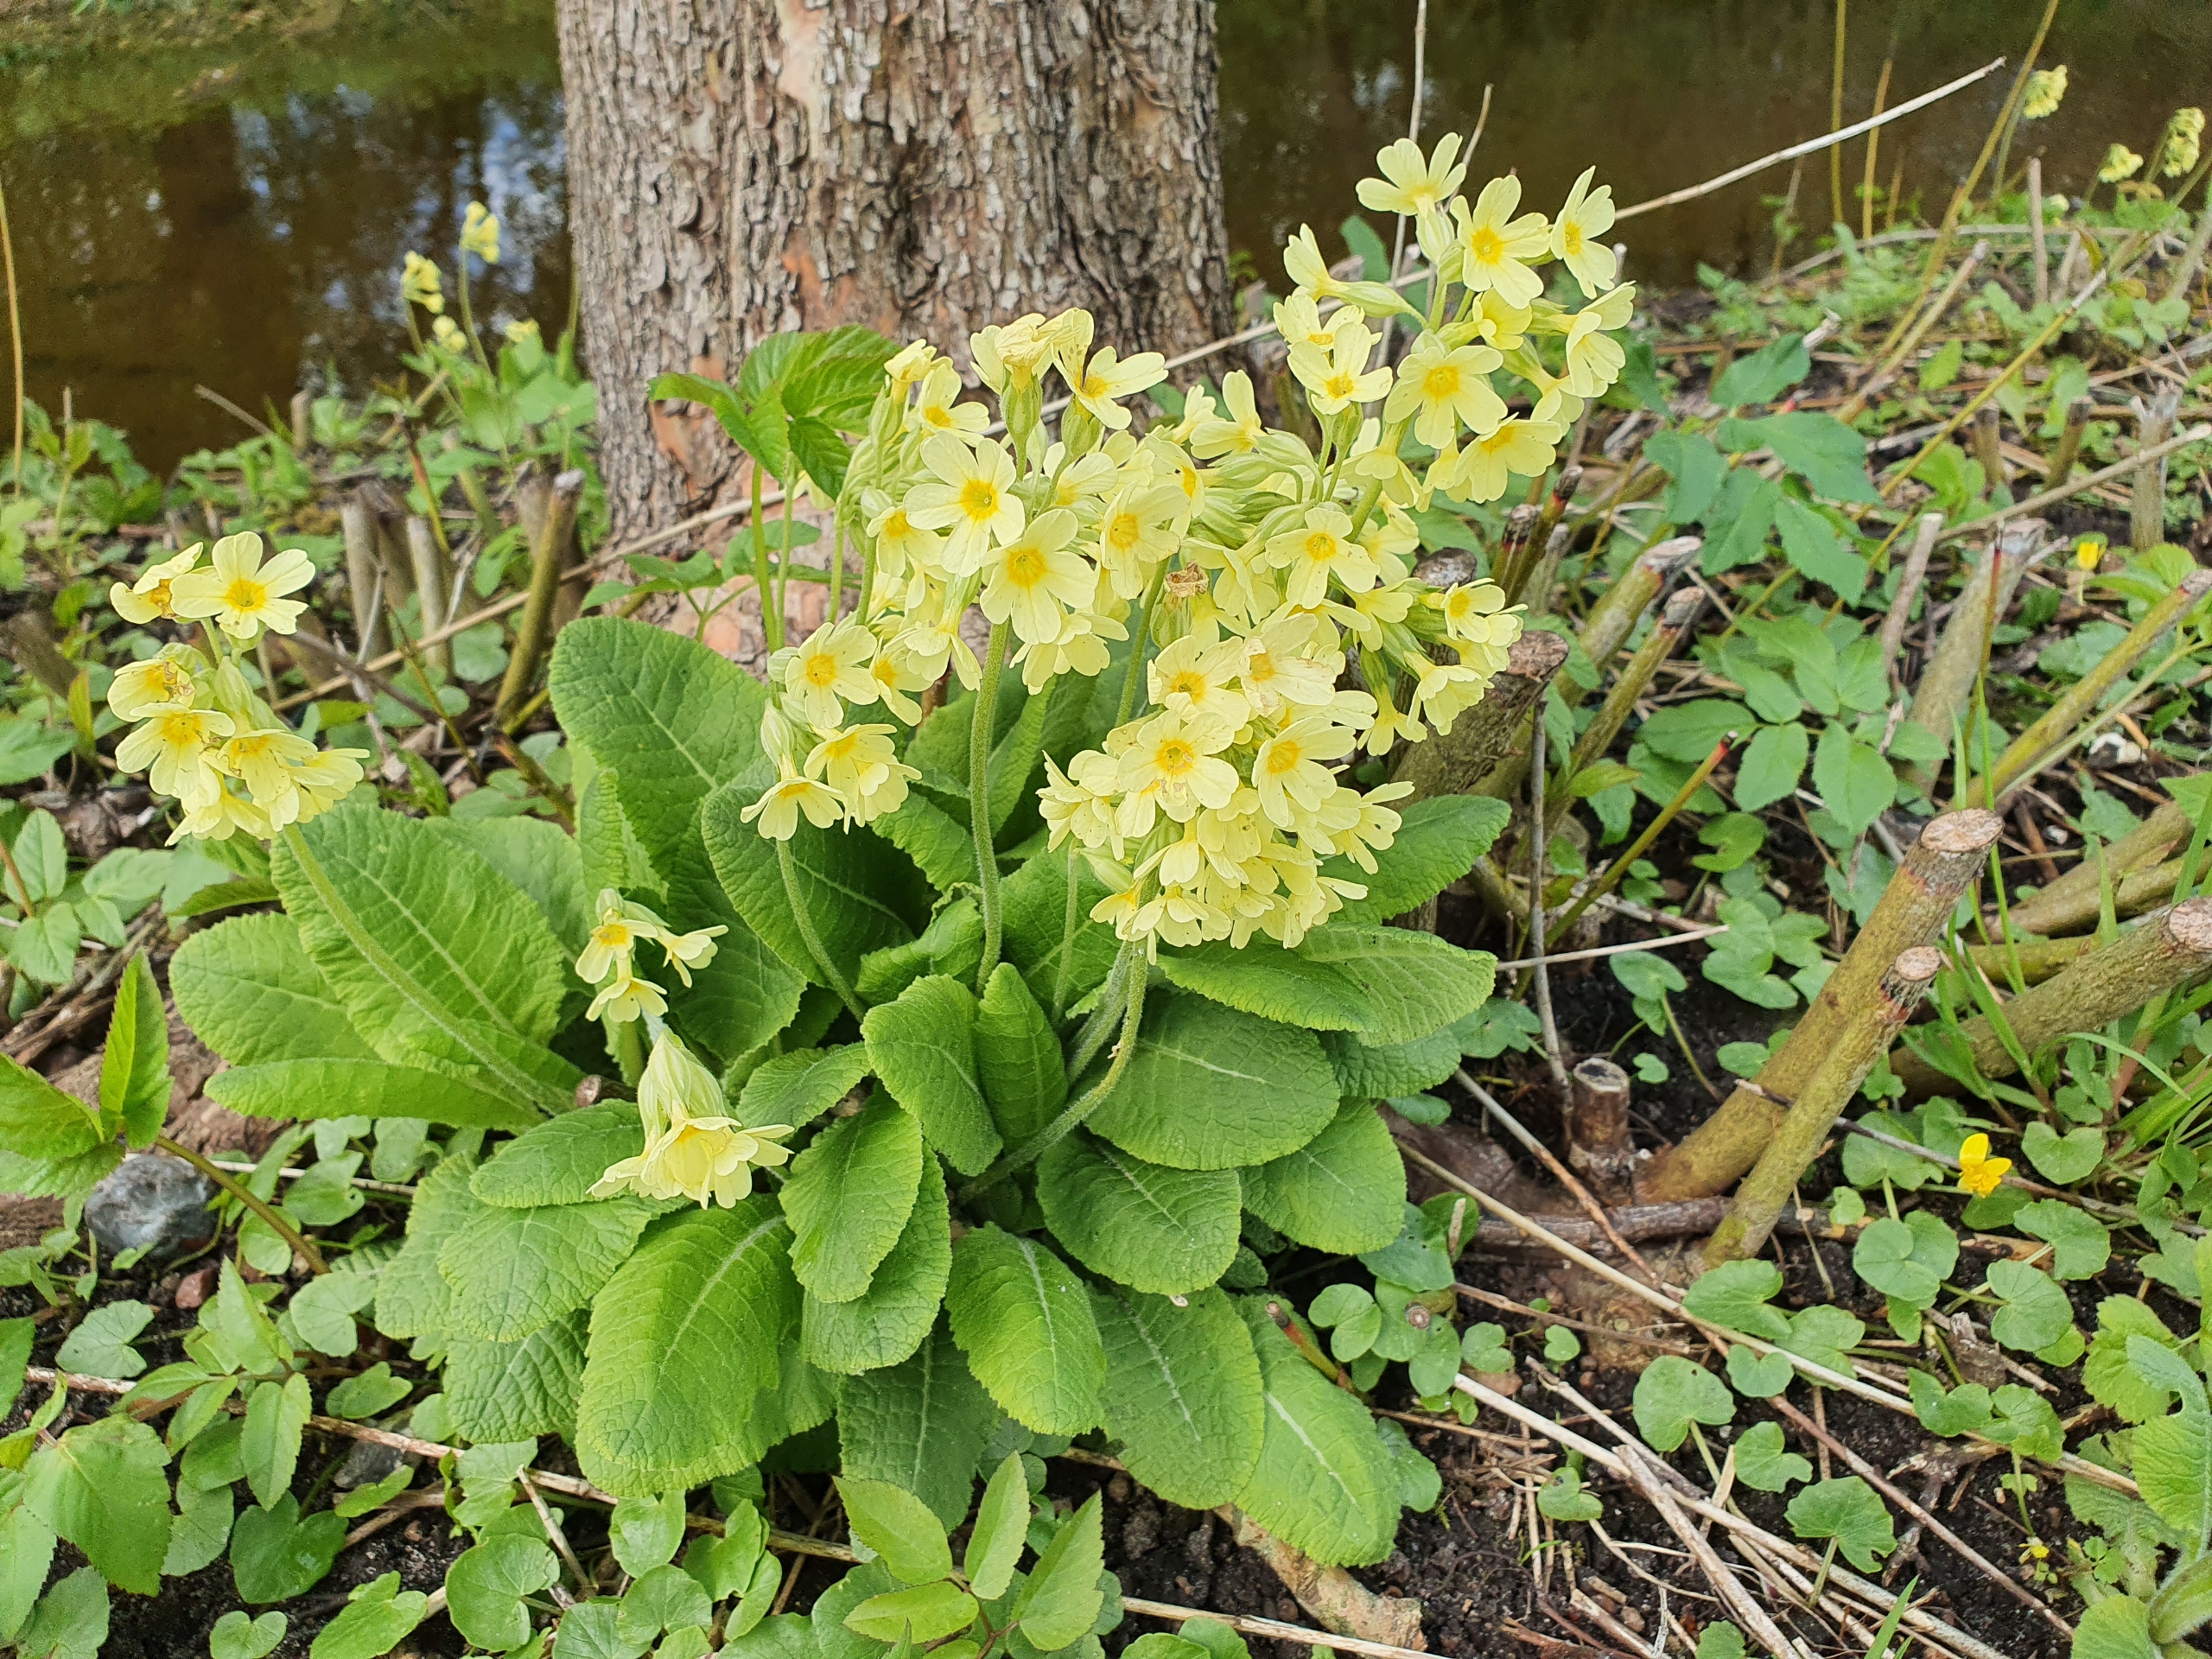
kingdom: Plantae
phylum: Tracheophyta
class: Magnoliopsida
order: Ericales
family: Primulaceae
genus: Primula
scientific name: Primula elatior
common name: Fladkravet kodriver
